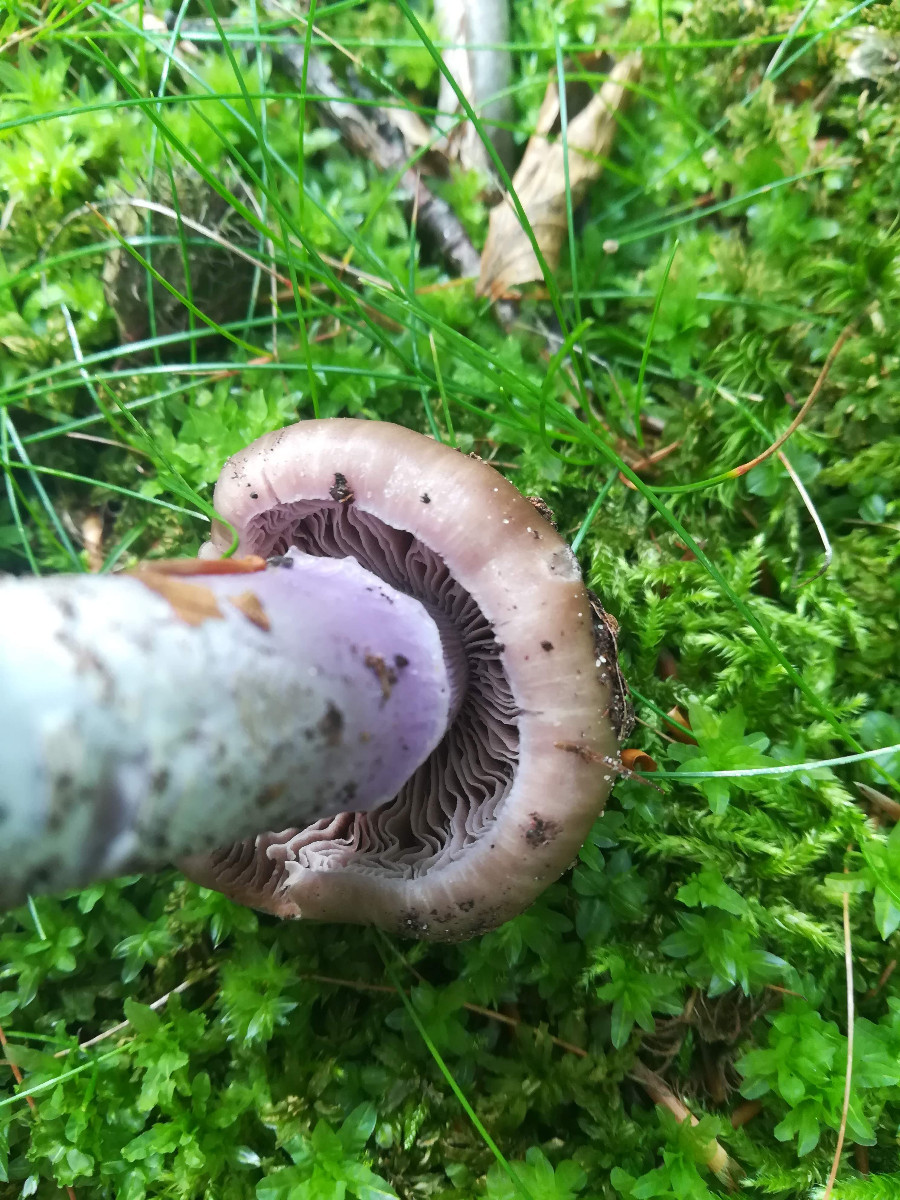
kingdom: Fungi
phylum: Basidiomycota
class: Agaricomycetes
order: Agaricales
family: Cortinariaceae
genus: Cortinarius
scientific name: Cortinarius elatior
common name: høj slørhat
